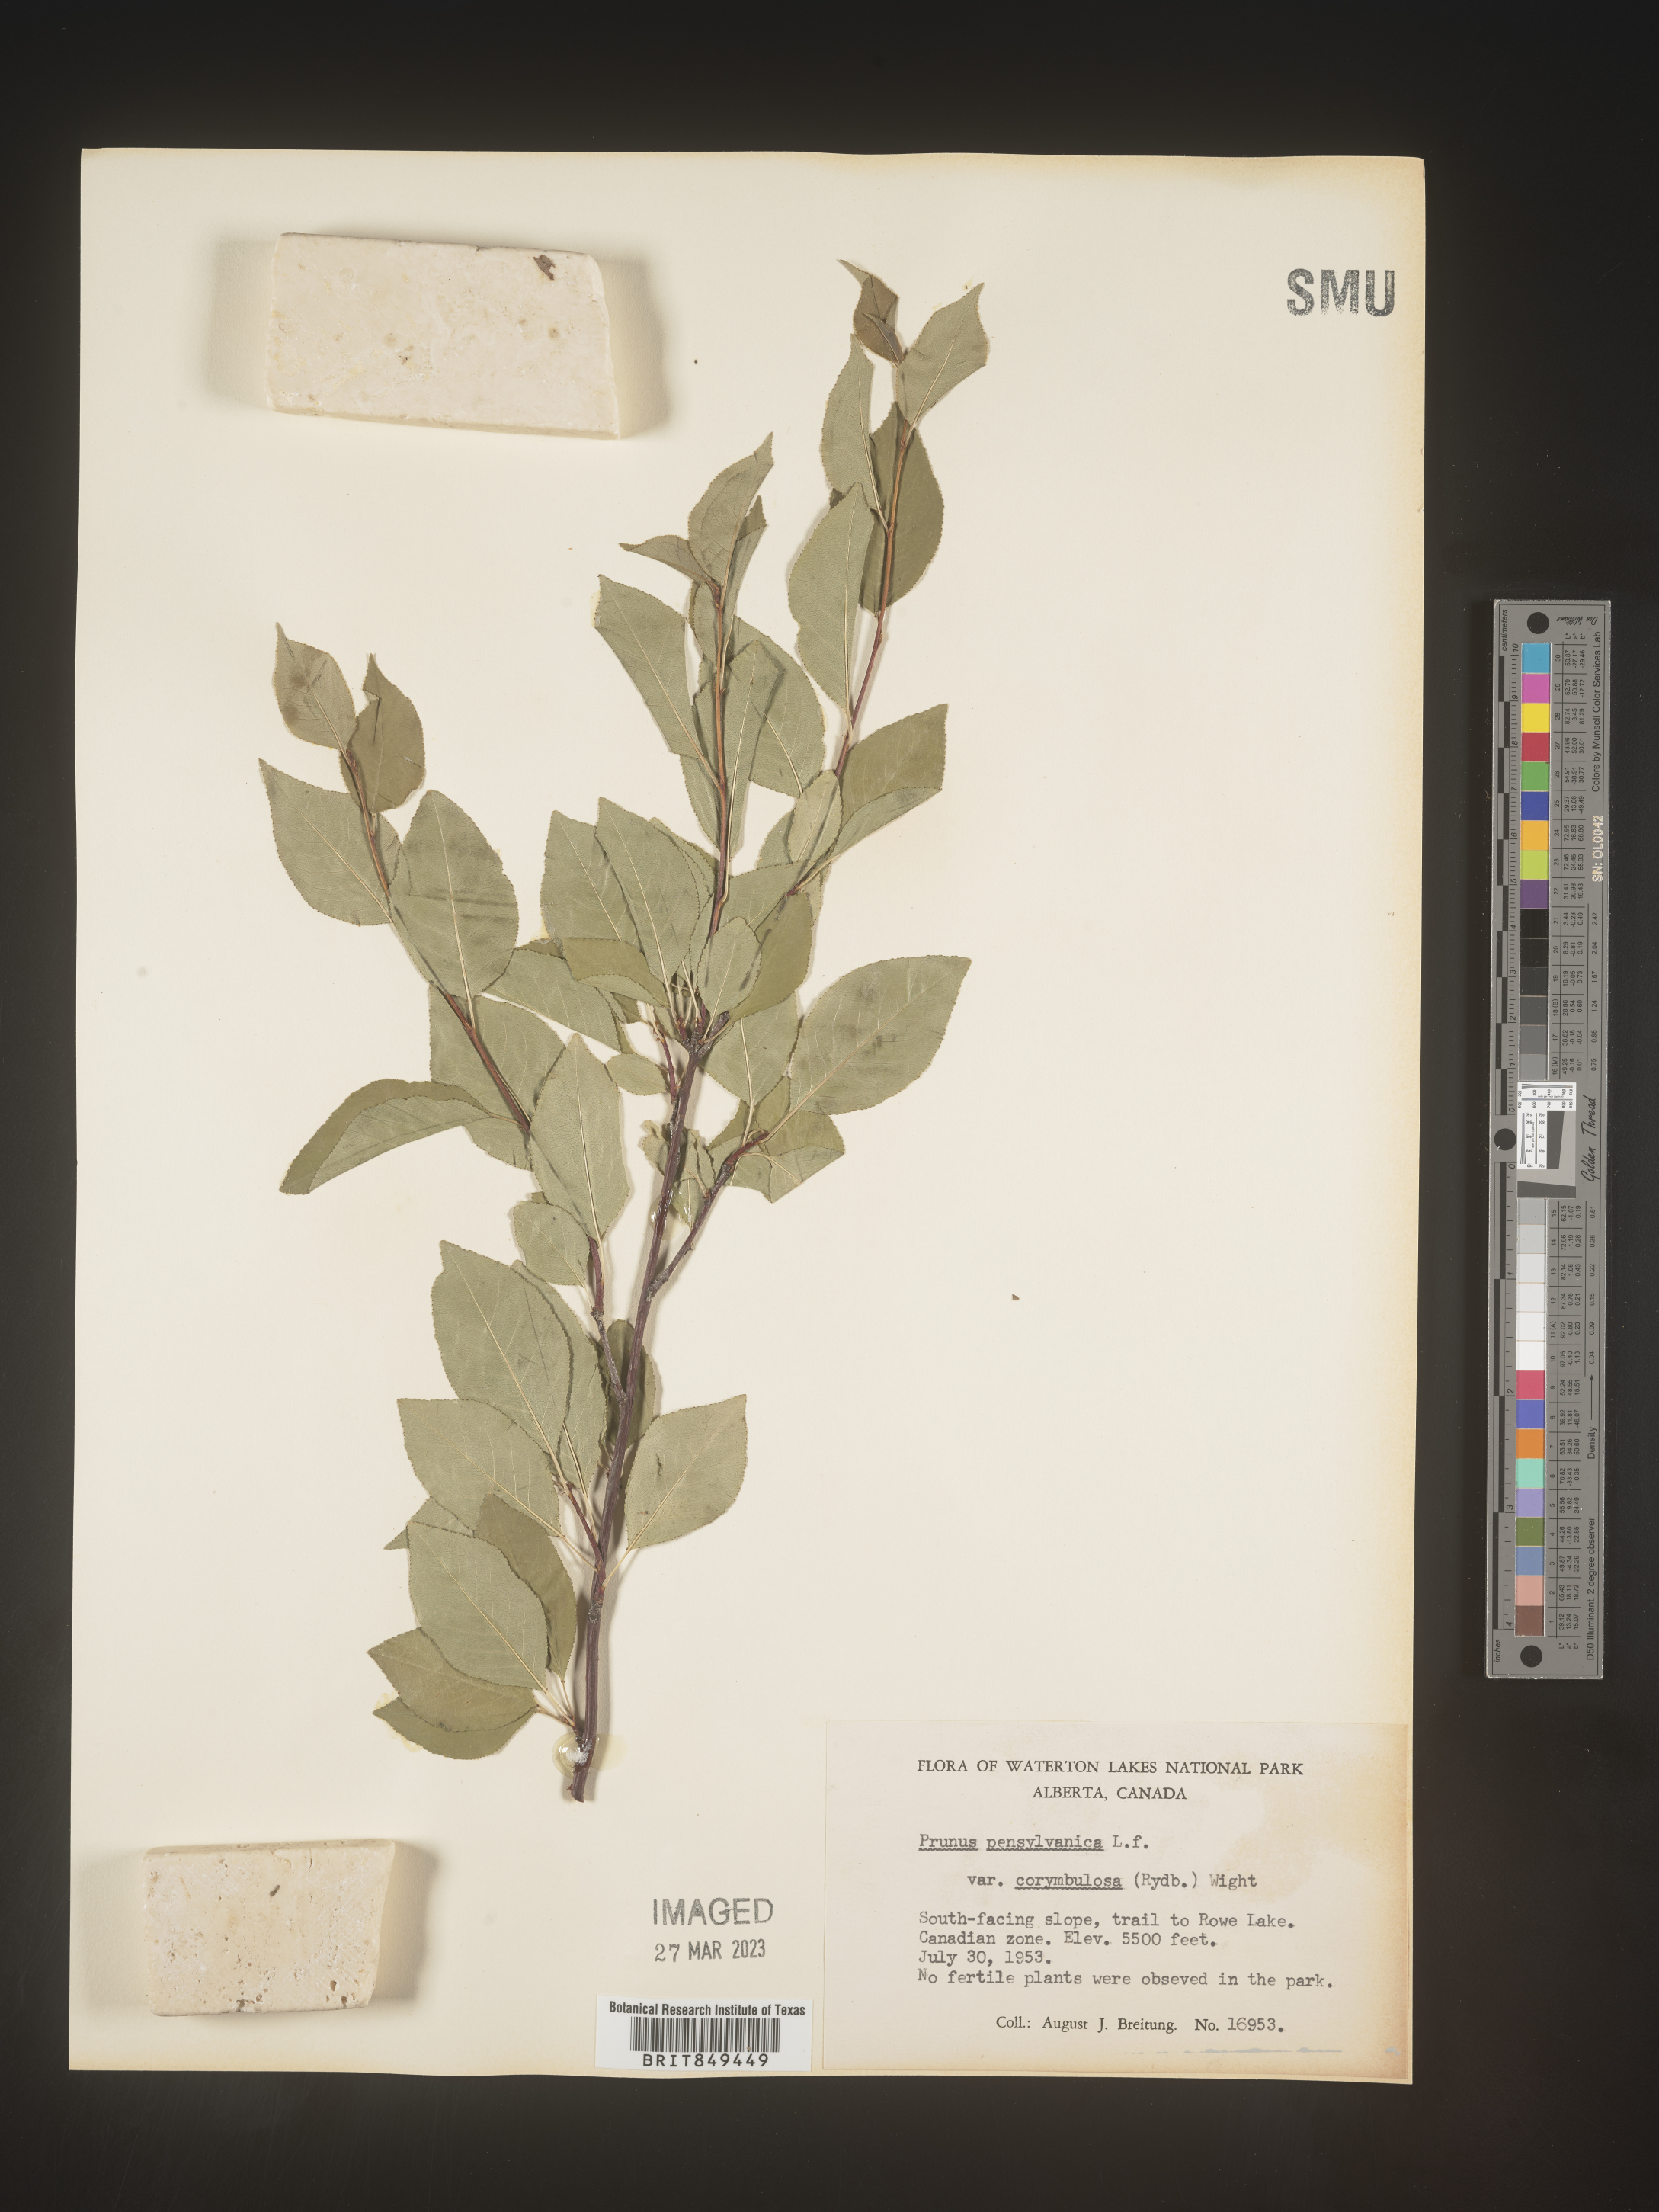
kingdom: Plantae
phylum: Tracheophyta
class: Magnoliopsida
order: Rosales
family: Rosaceae
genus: Prunus
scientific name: Prunus pensylvanica
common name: Pin cherry
